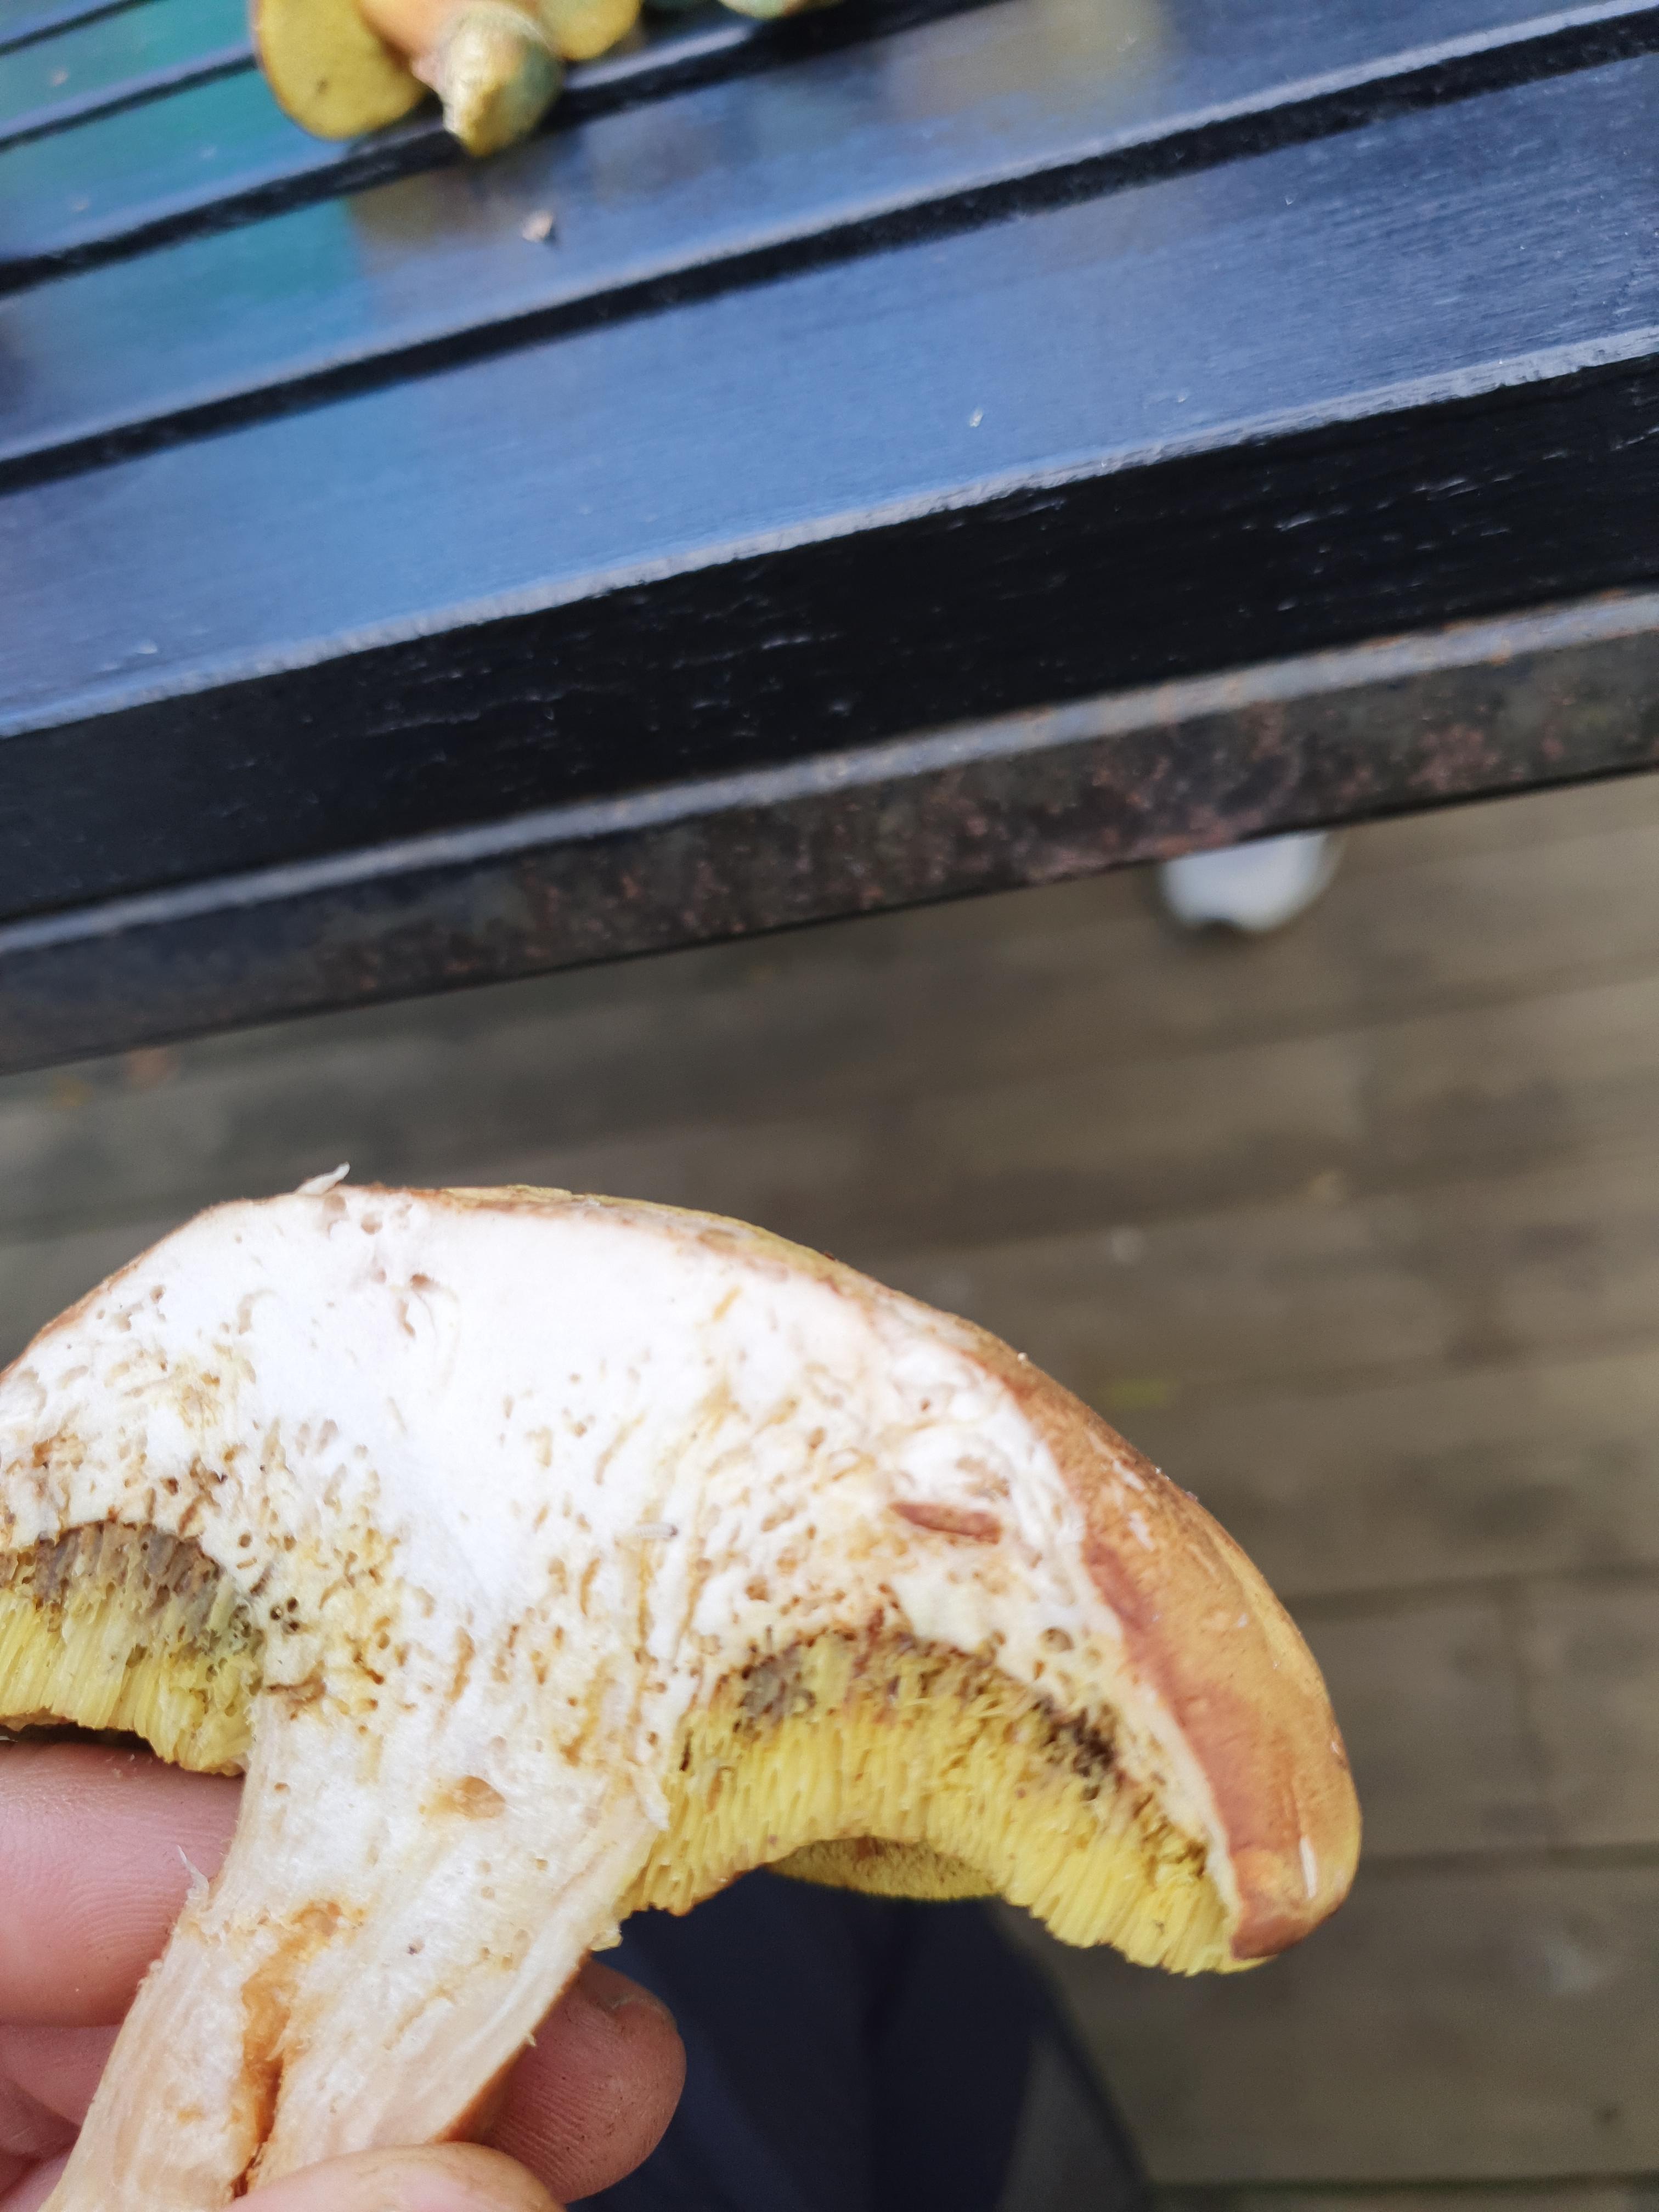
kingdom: Fungi
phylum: Basidiomycota
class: Agaricomycetes
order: Boletales
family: Boletaceae
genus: Xerocomus
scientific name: Xerocomus
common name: filtrørhat
